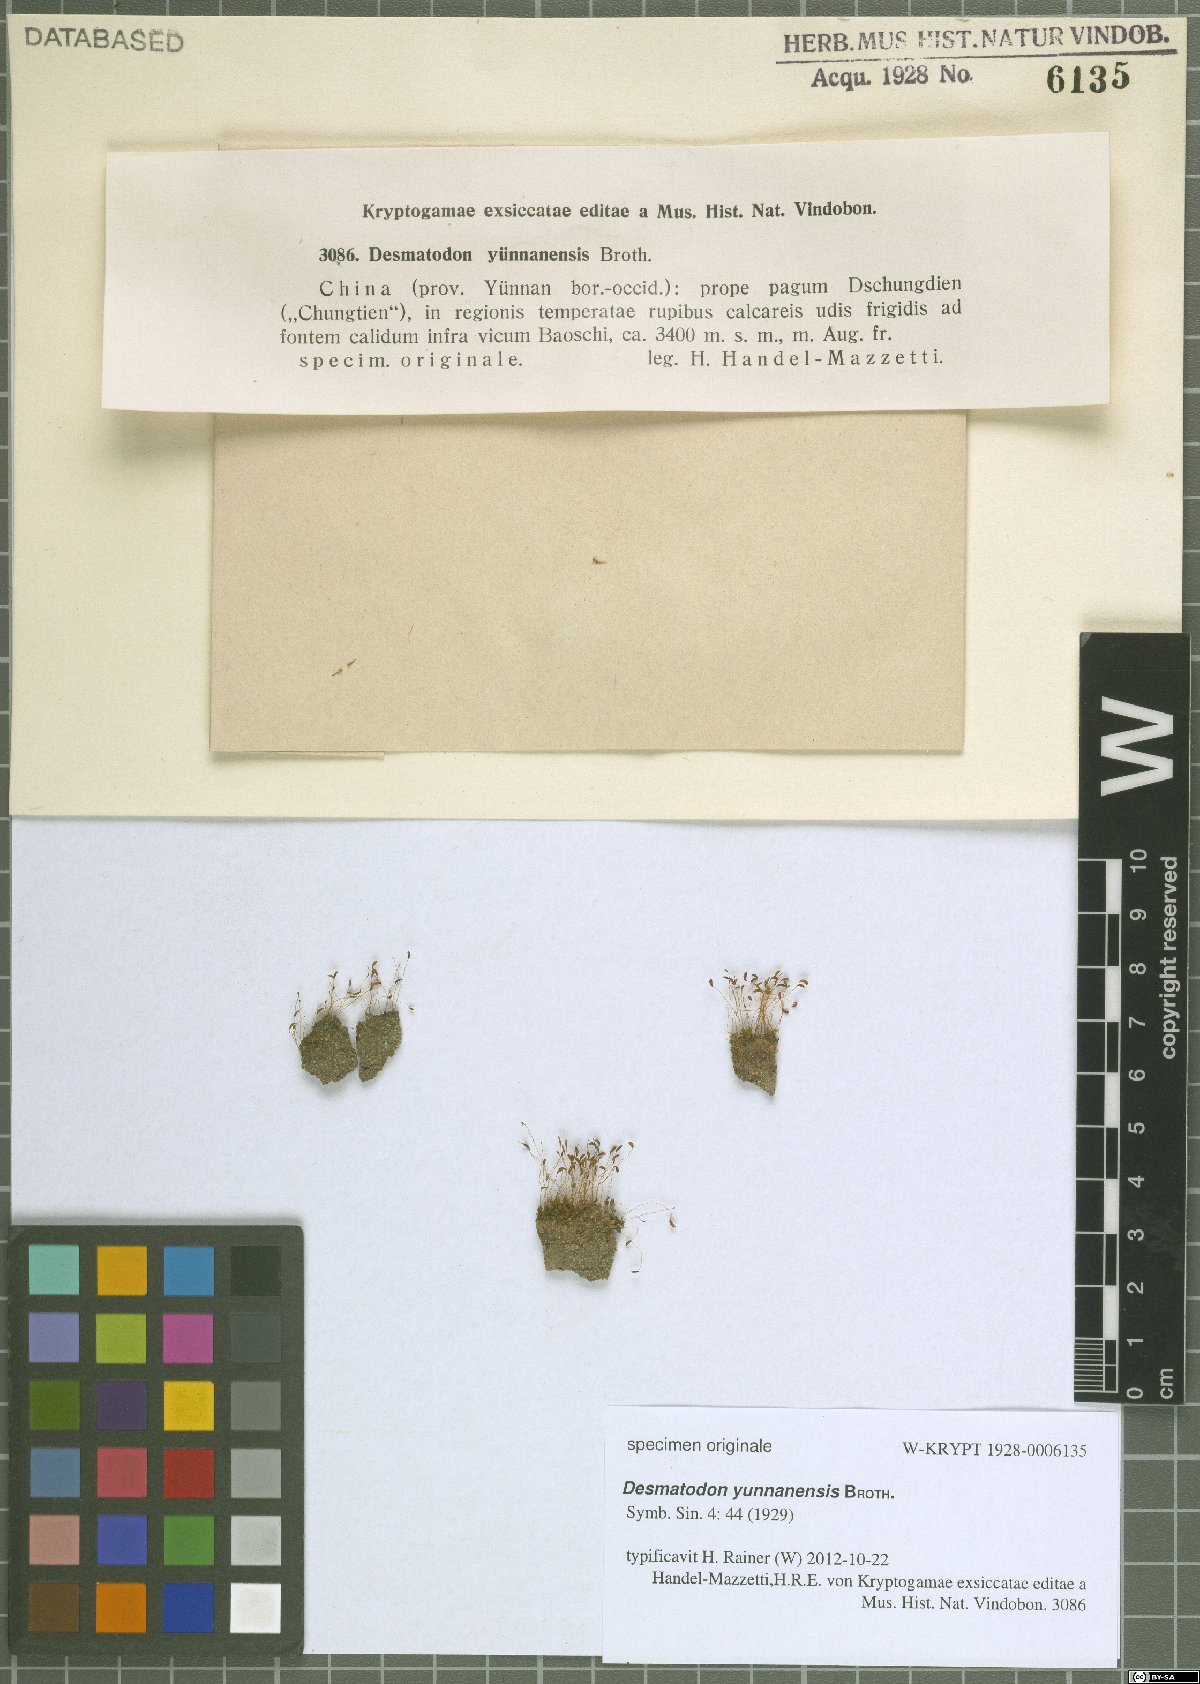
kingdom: Animalia
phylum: Chordata
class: Amphibia
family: Diadectidae
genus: Desmatodon
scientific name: Desmatodon
